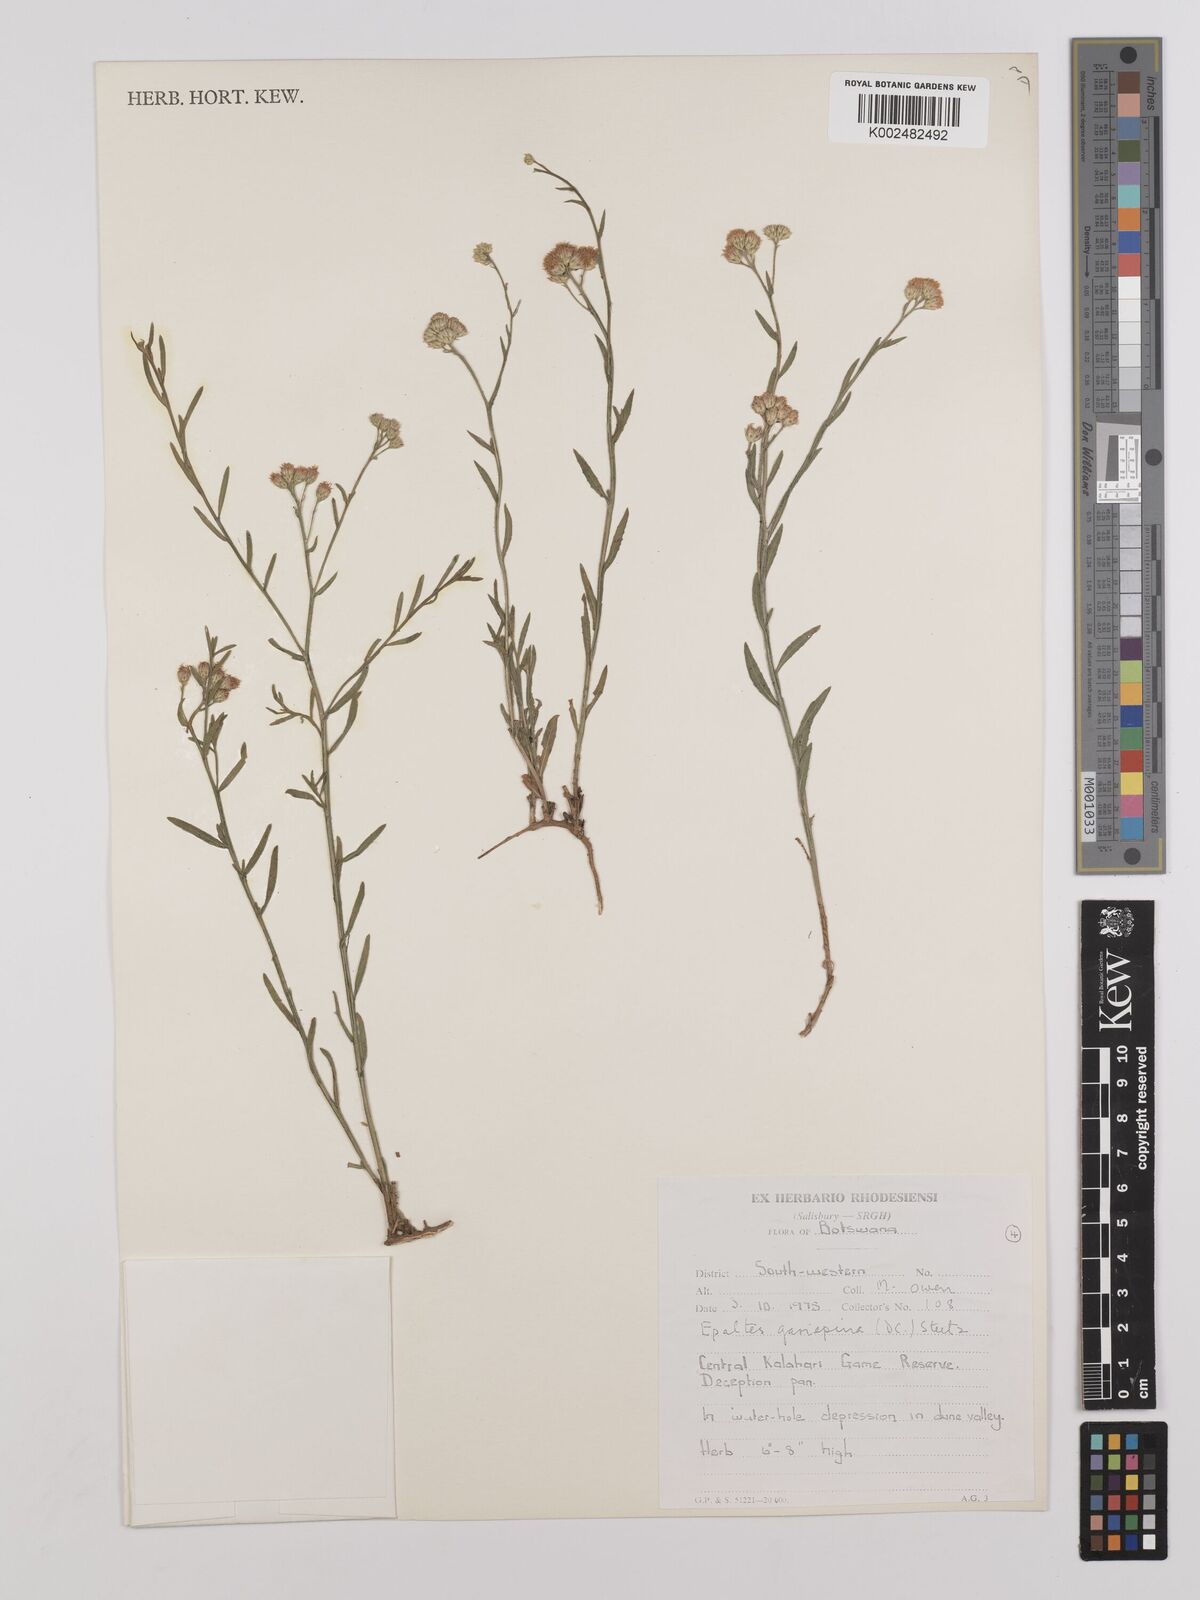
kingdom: Plantae
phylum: Tracheophyta
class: Magnoliopsida
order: Asterales
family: Asteraceae
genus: Litogyne
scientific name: Litogyne gariepina
